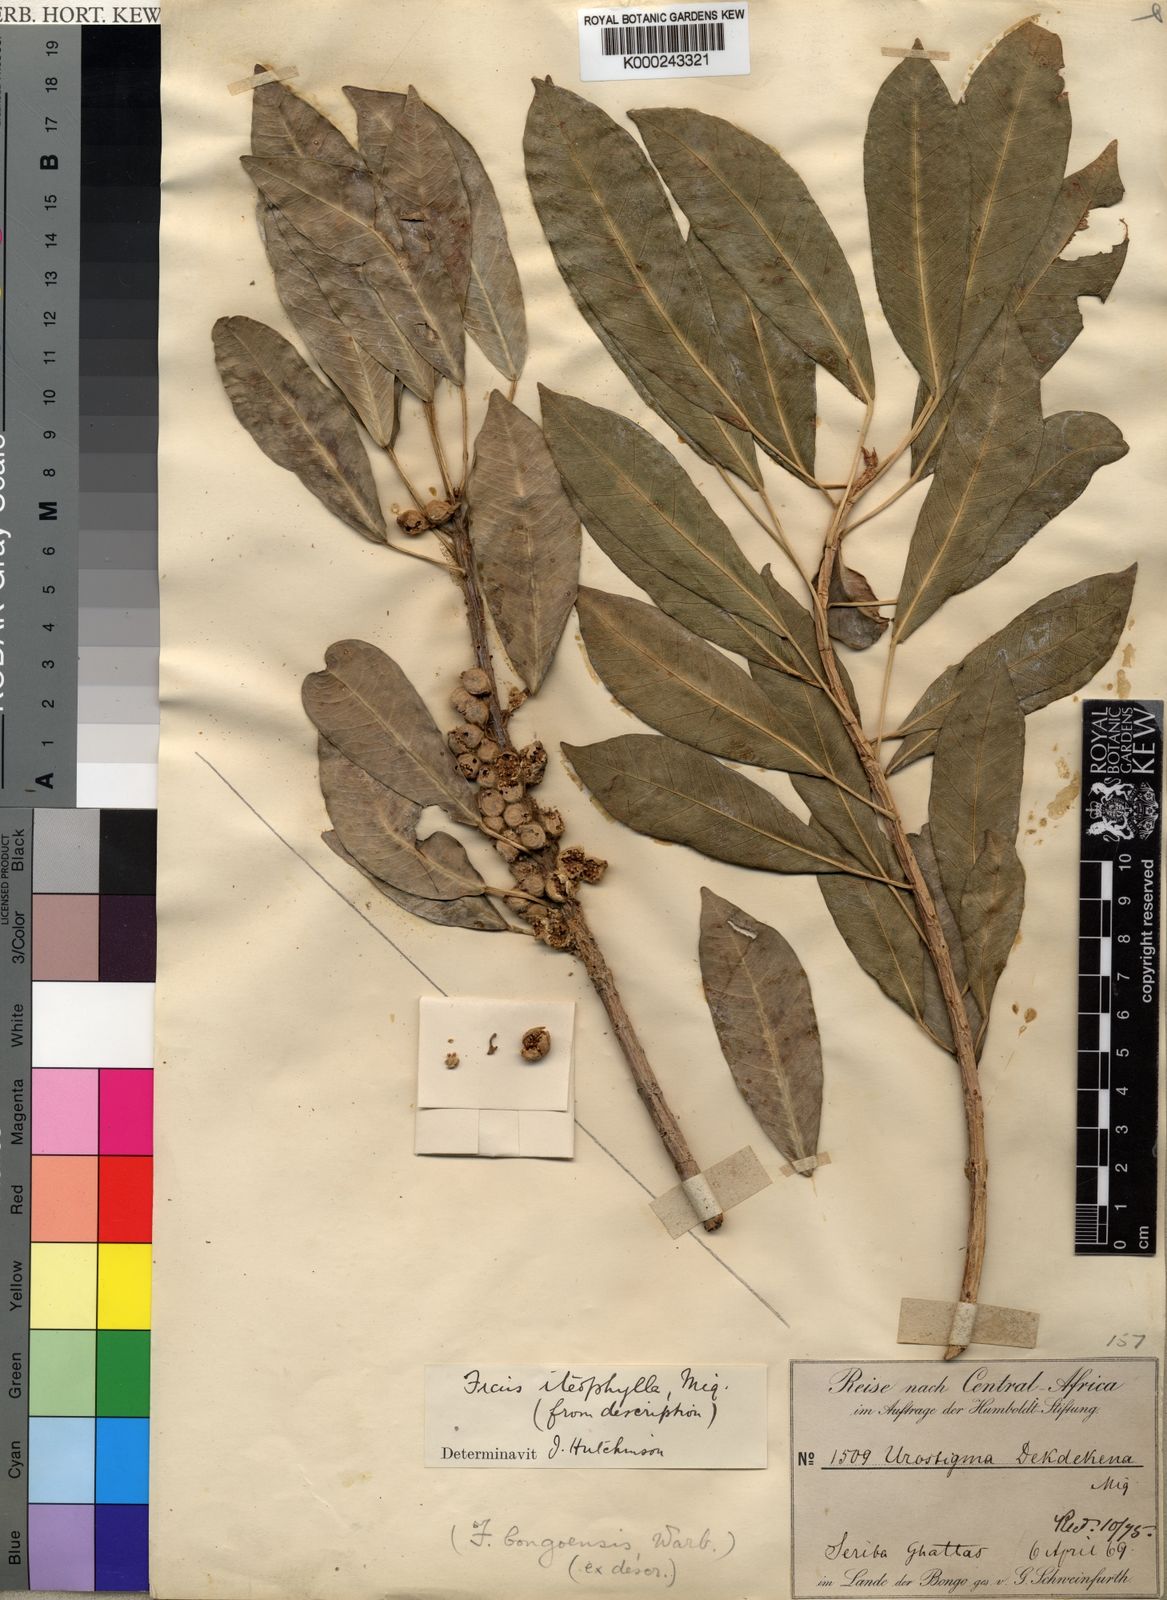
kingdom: Plantae
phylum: Tracheophyta
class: Magnoliopsida
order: Rosales
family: Moraceae
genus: Ficus
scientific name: Ficus thonningii
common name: Fig
